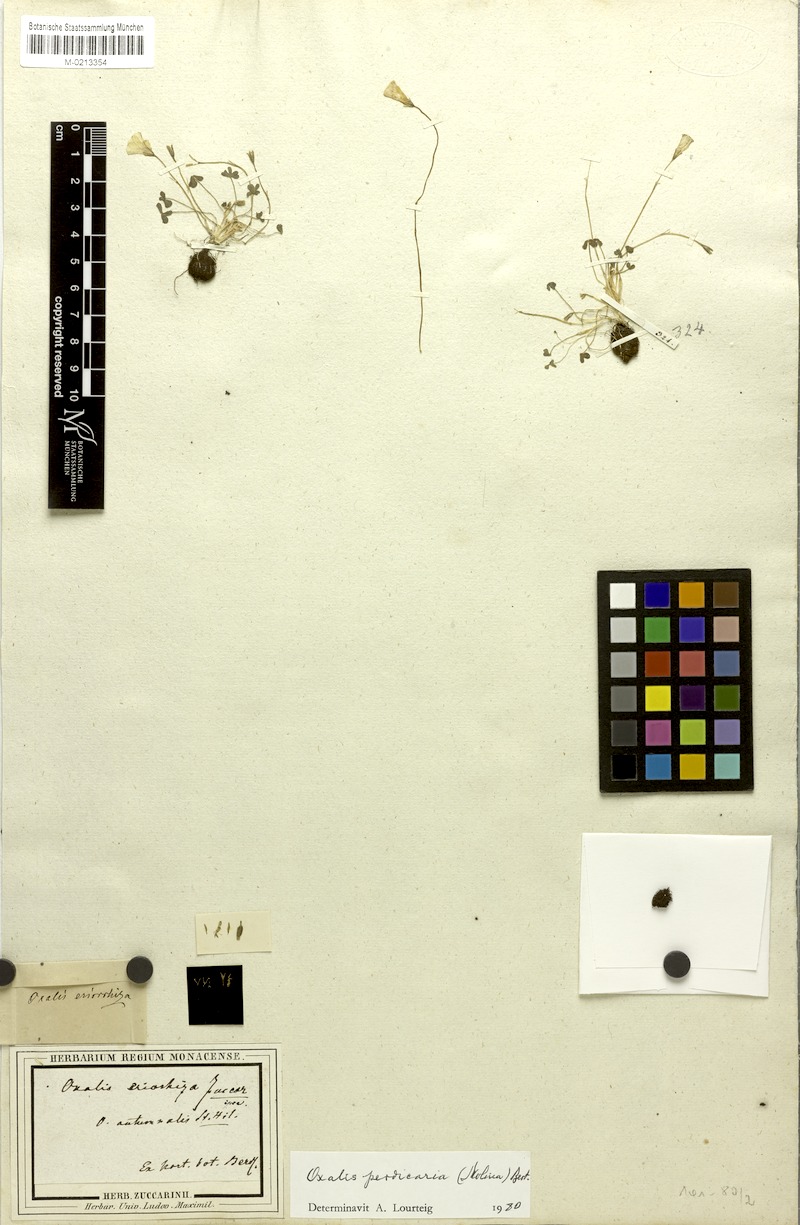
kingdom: Plantae
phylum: Tracheophyta
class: Magnoliopsida
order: Oxalidales
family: Oxalidaceae
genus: Oxalis
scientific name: Oxalis perdicaria
